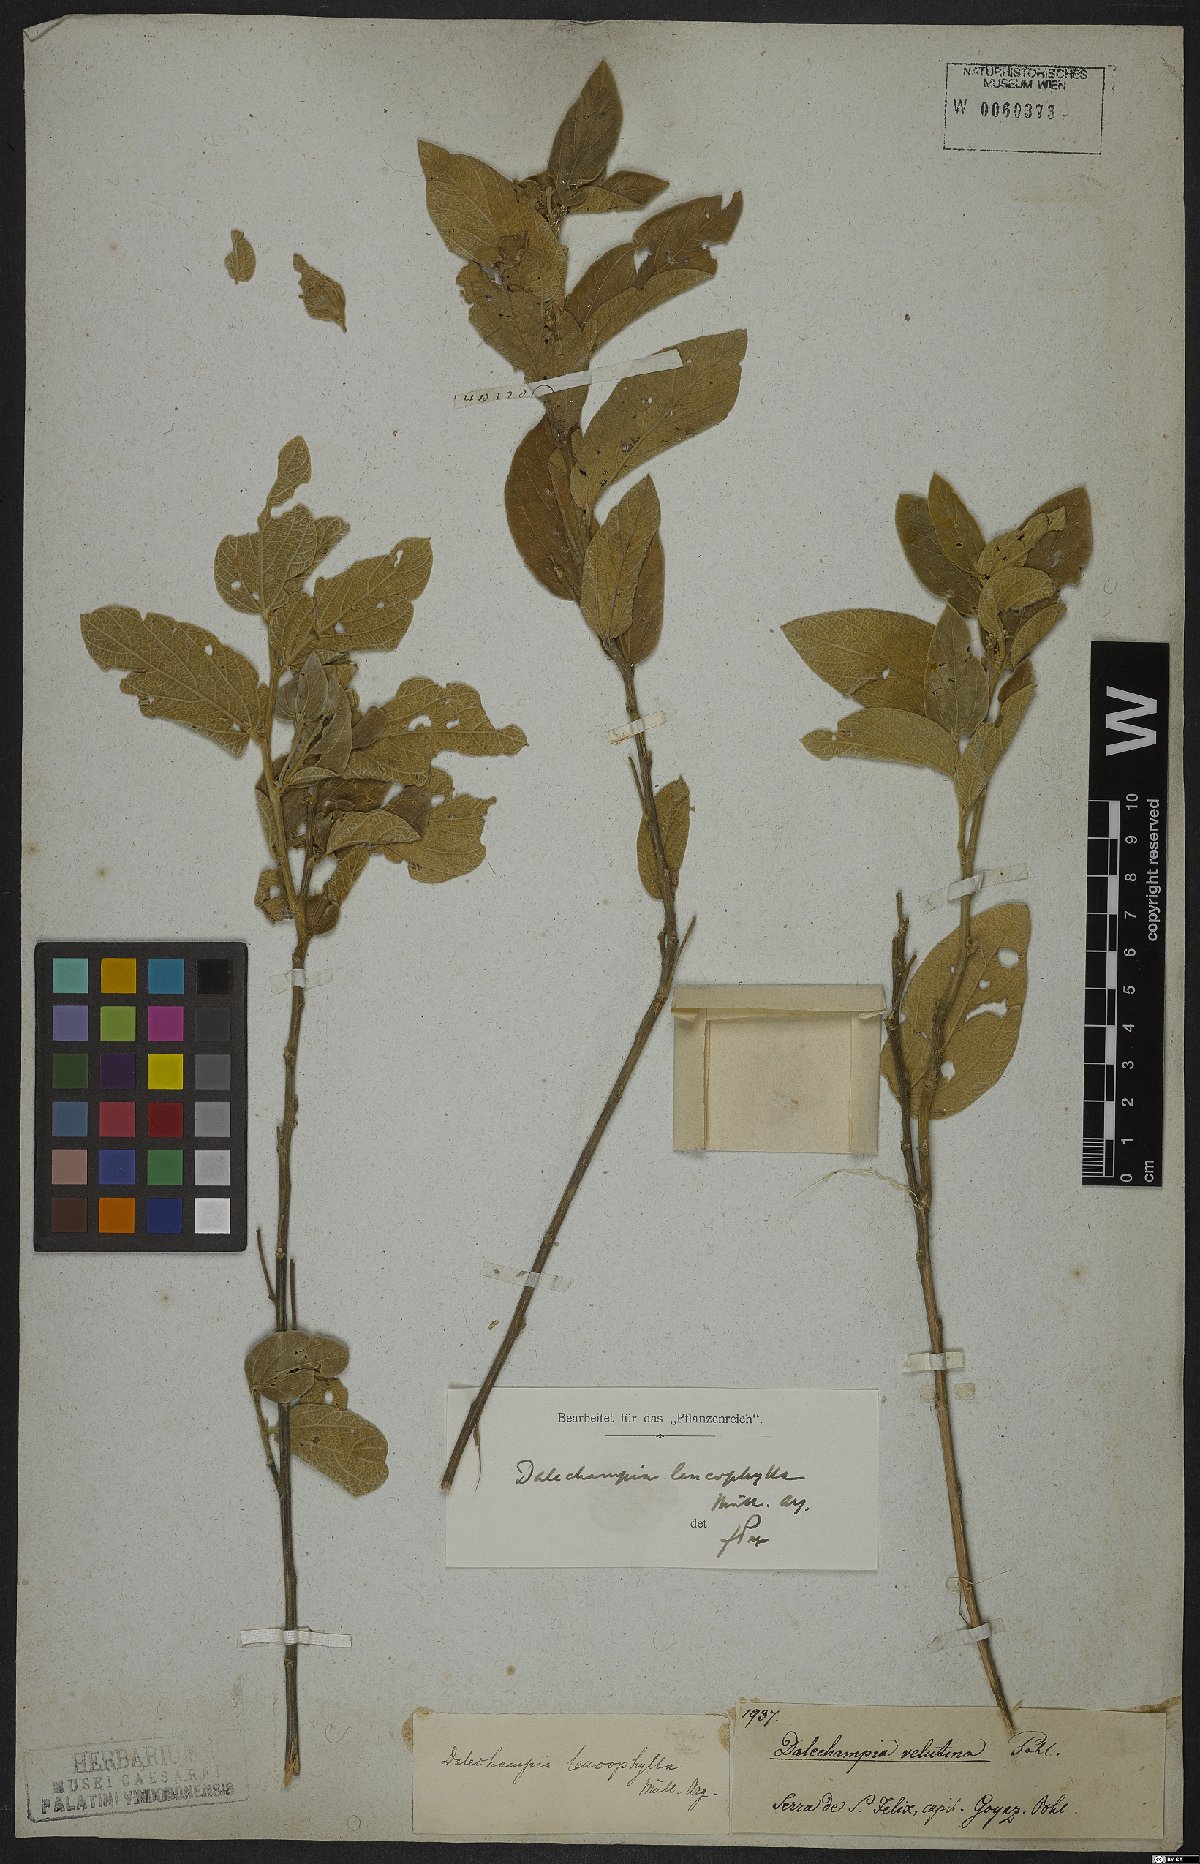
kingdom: Plantae
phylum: Tracheophyta
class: Magnoliopsida
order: Malpighiales
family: Euphorbiaceae
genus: Dalechampia
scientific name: Dalechampia leucophylla
